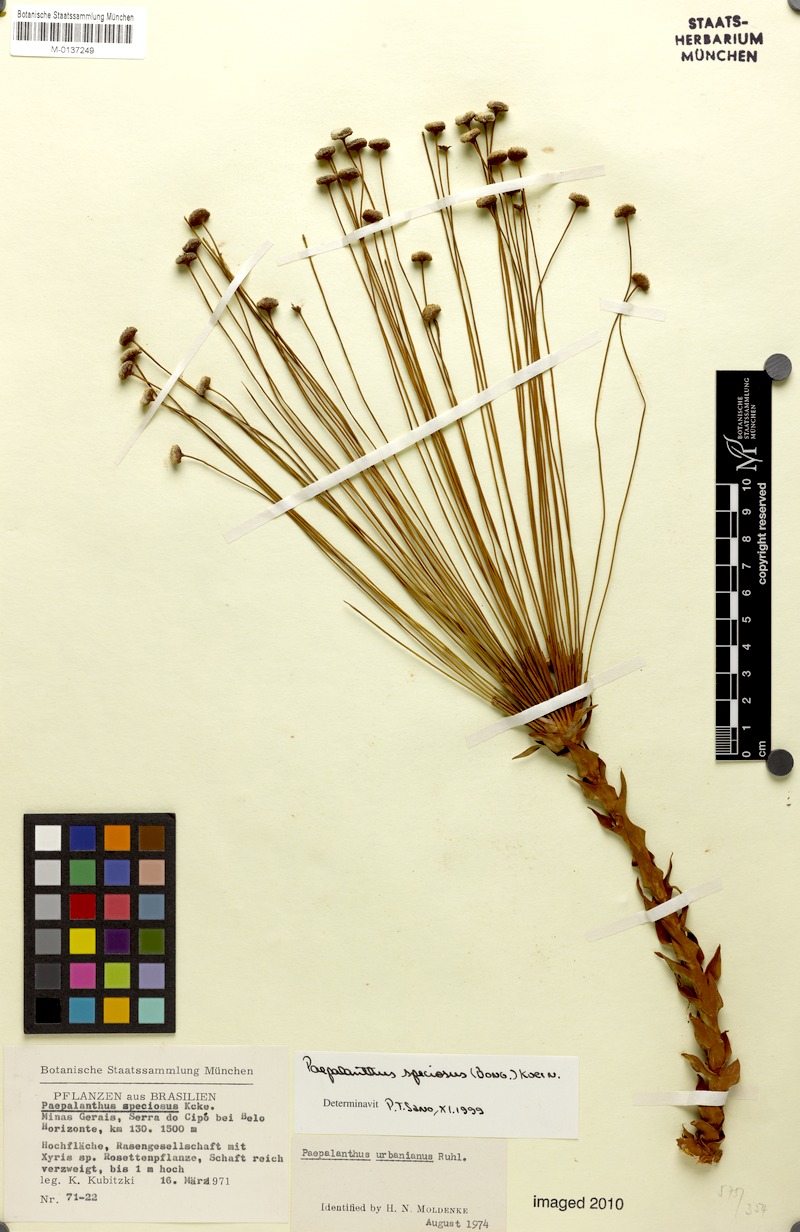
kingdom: Plantae
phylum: Tracheophyta
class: Liliopsida
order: Poales
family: Eriocaulaceae
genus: Paepalanthus
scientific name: Paepalanthus chiquitensis
